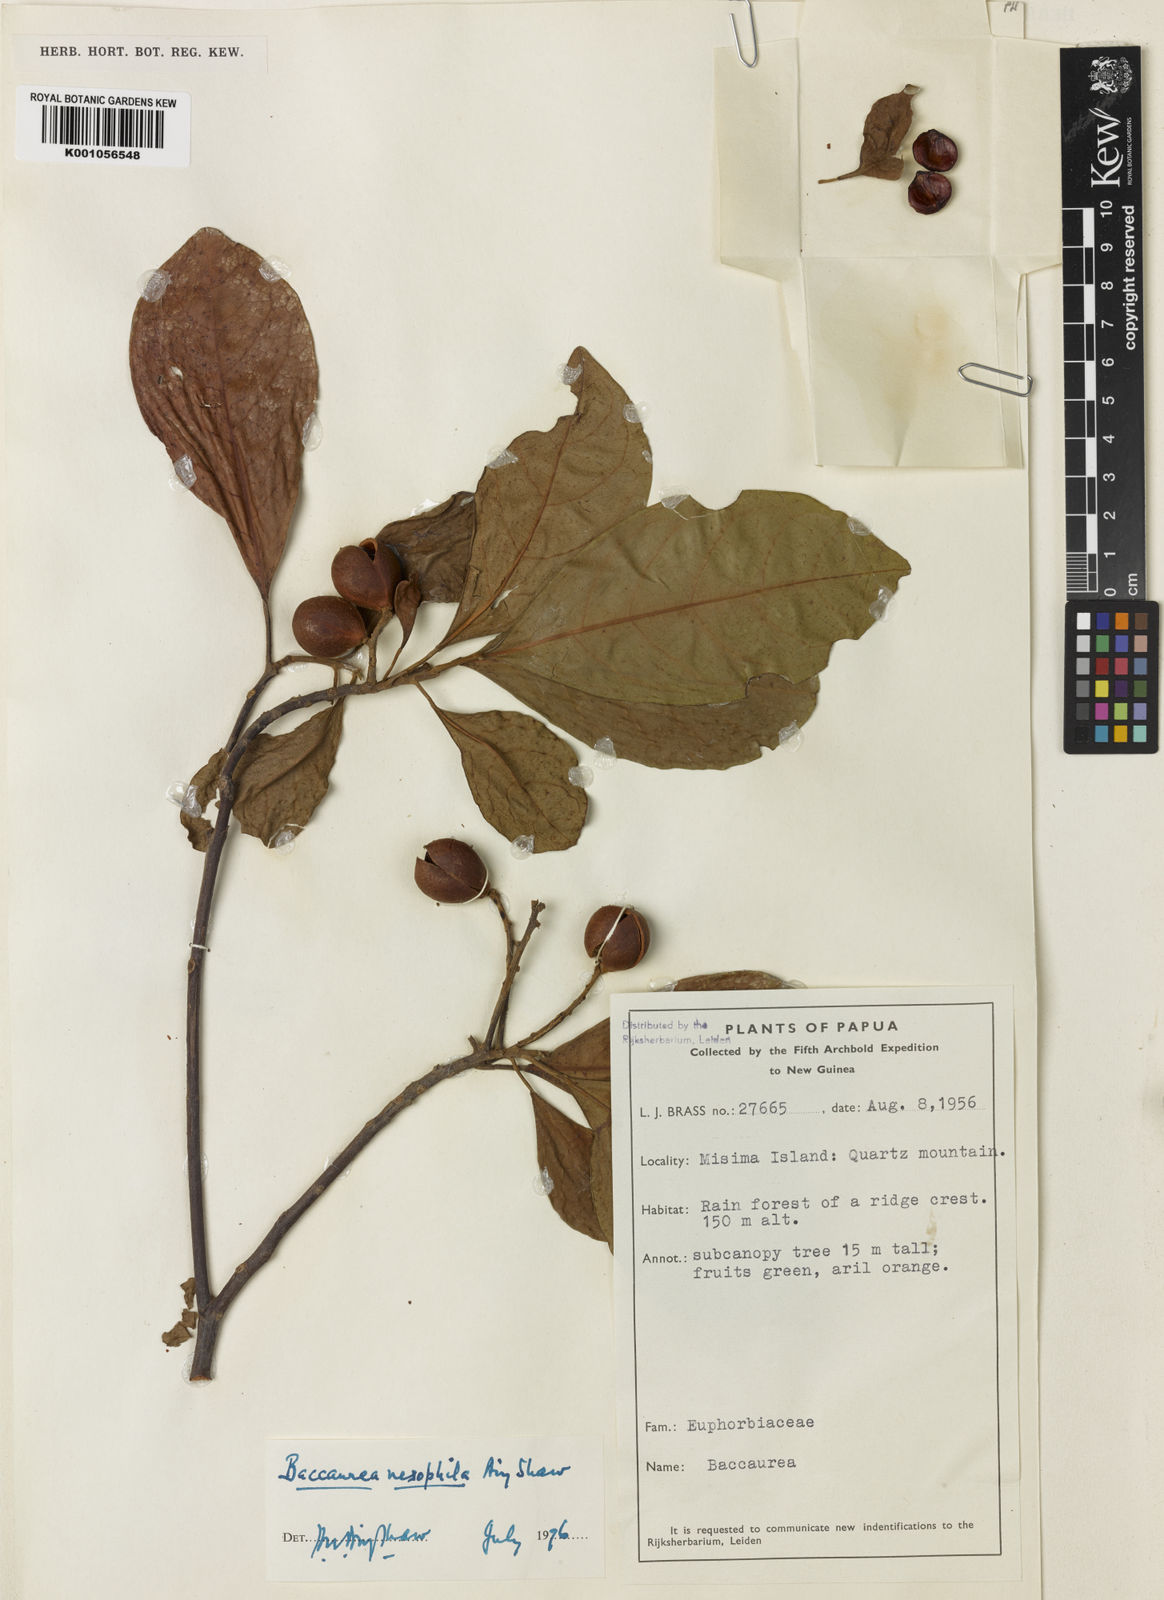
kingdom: Plantae
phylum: Tracheophyta
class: Magnoliopsida
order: Malpighiales
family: Phyllanthaceae
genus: Baccaurea
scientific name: Baccaurea nesophila
